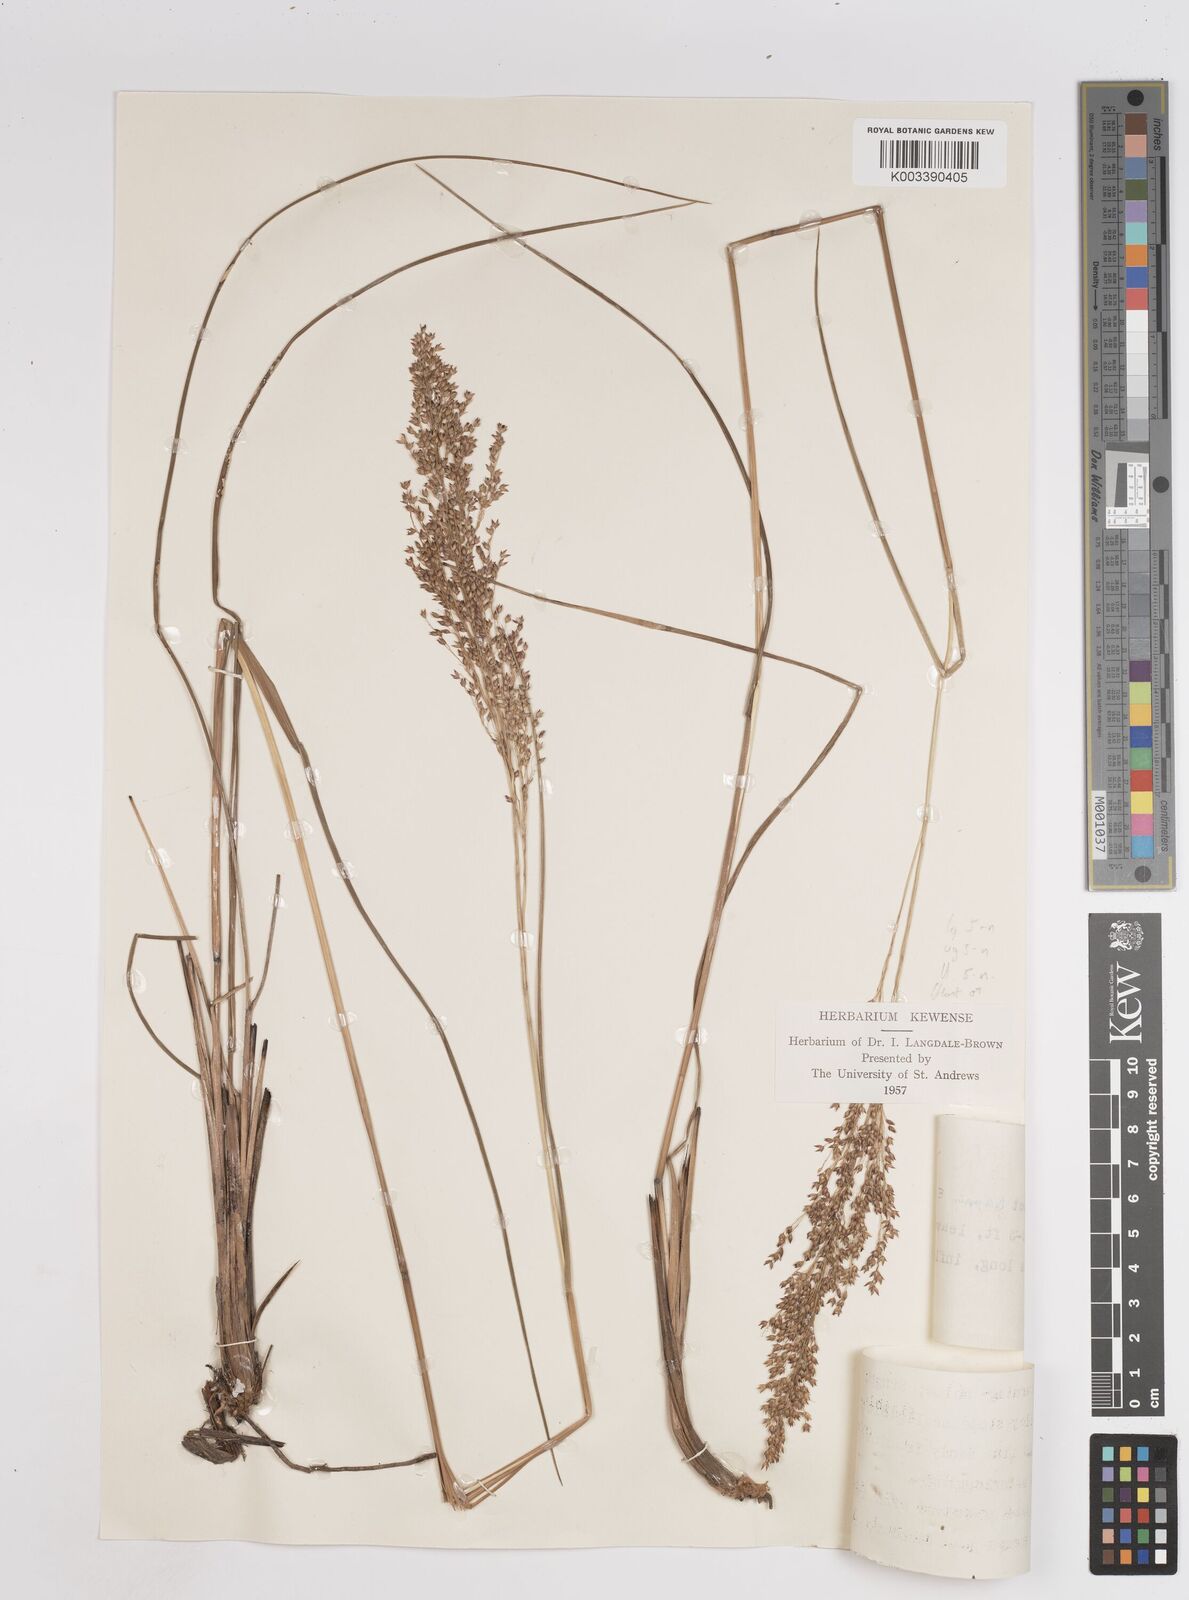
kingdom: Plantae
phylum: Tracheophyta
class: Liliopsida
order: Poales
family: Poaceae
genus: Panicum
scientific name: Panicum dregeanum
